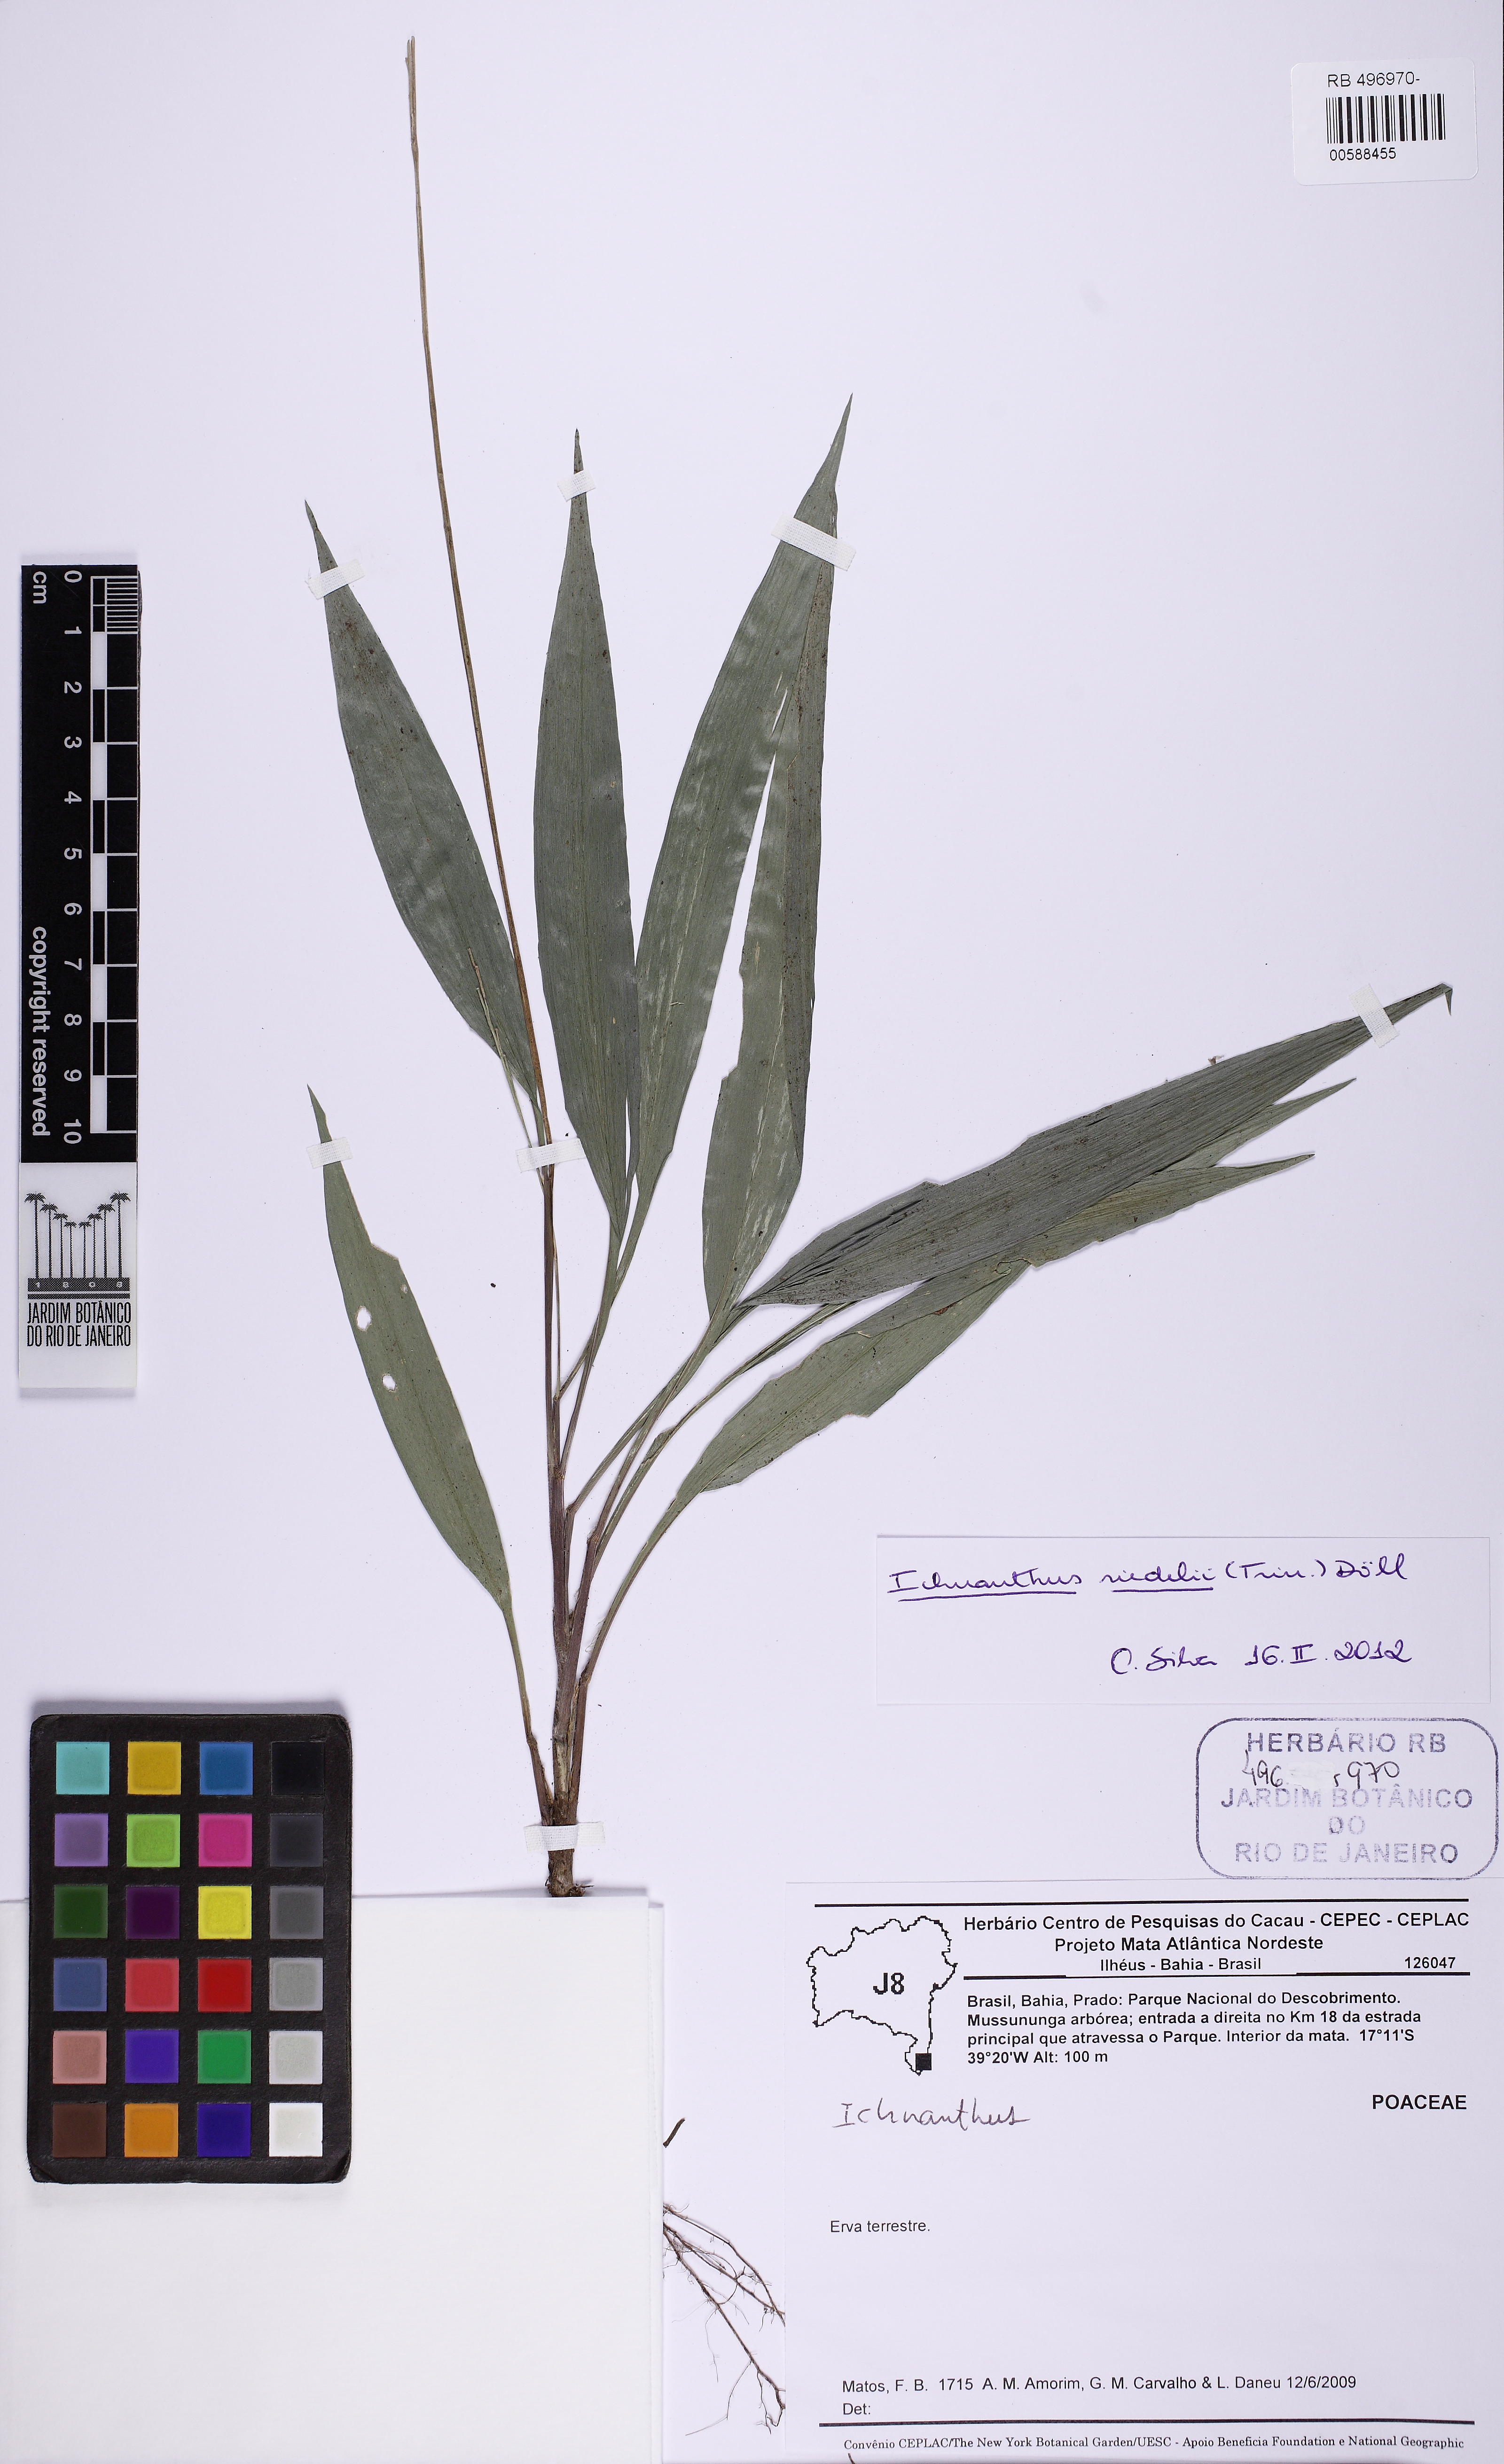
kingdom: Plantae
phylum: Tracheophyta
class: Liliopsida
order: Poales
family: Poaceae
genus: Ichnanthus
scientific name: Ichnanthus riedelii
